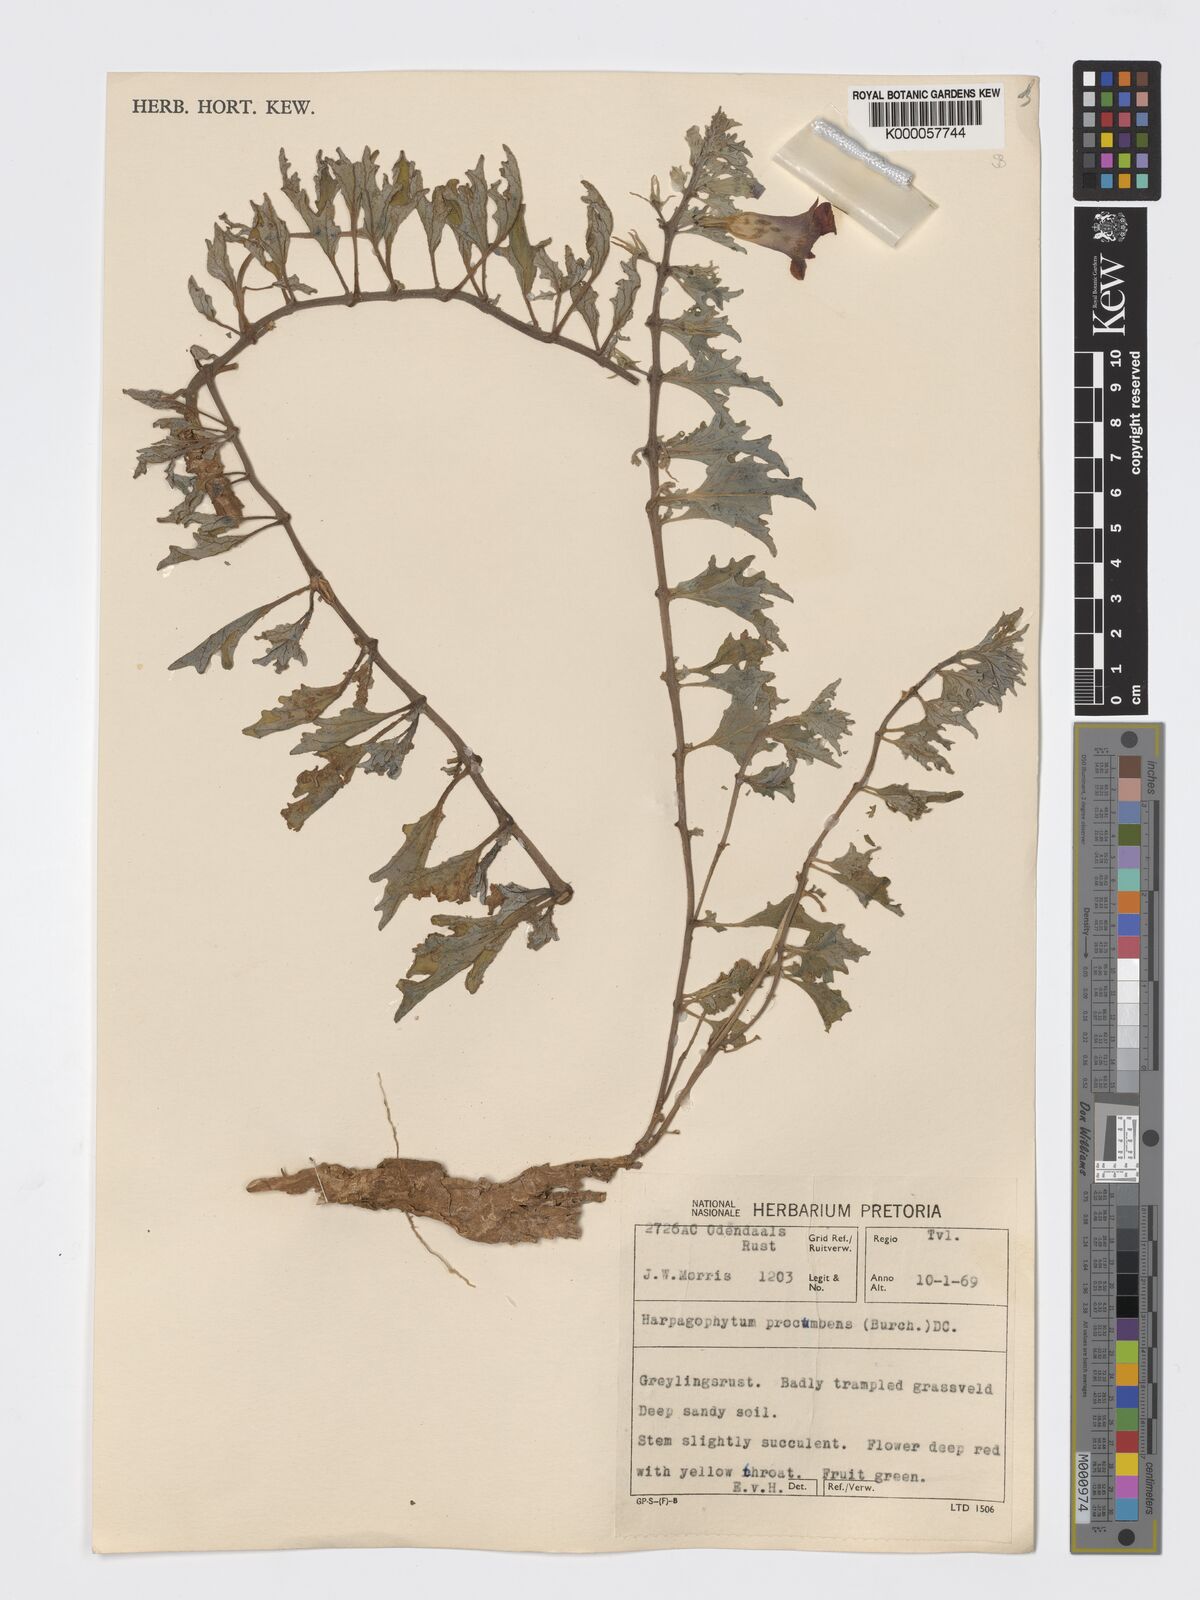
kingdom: Plantae
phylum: Tracheophyta
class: Magnoliopsida
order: Lamiales
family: Pedaliaceae
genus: Harpagophytum
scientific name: Harpagophytum procumbens
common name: Grappleplant
